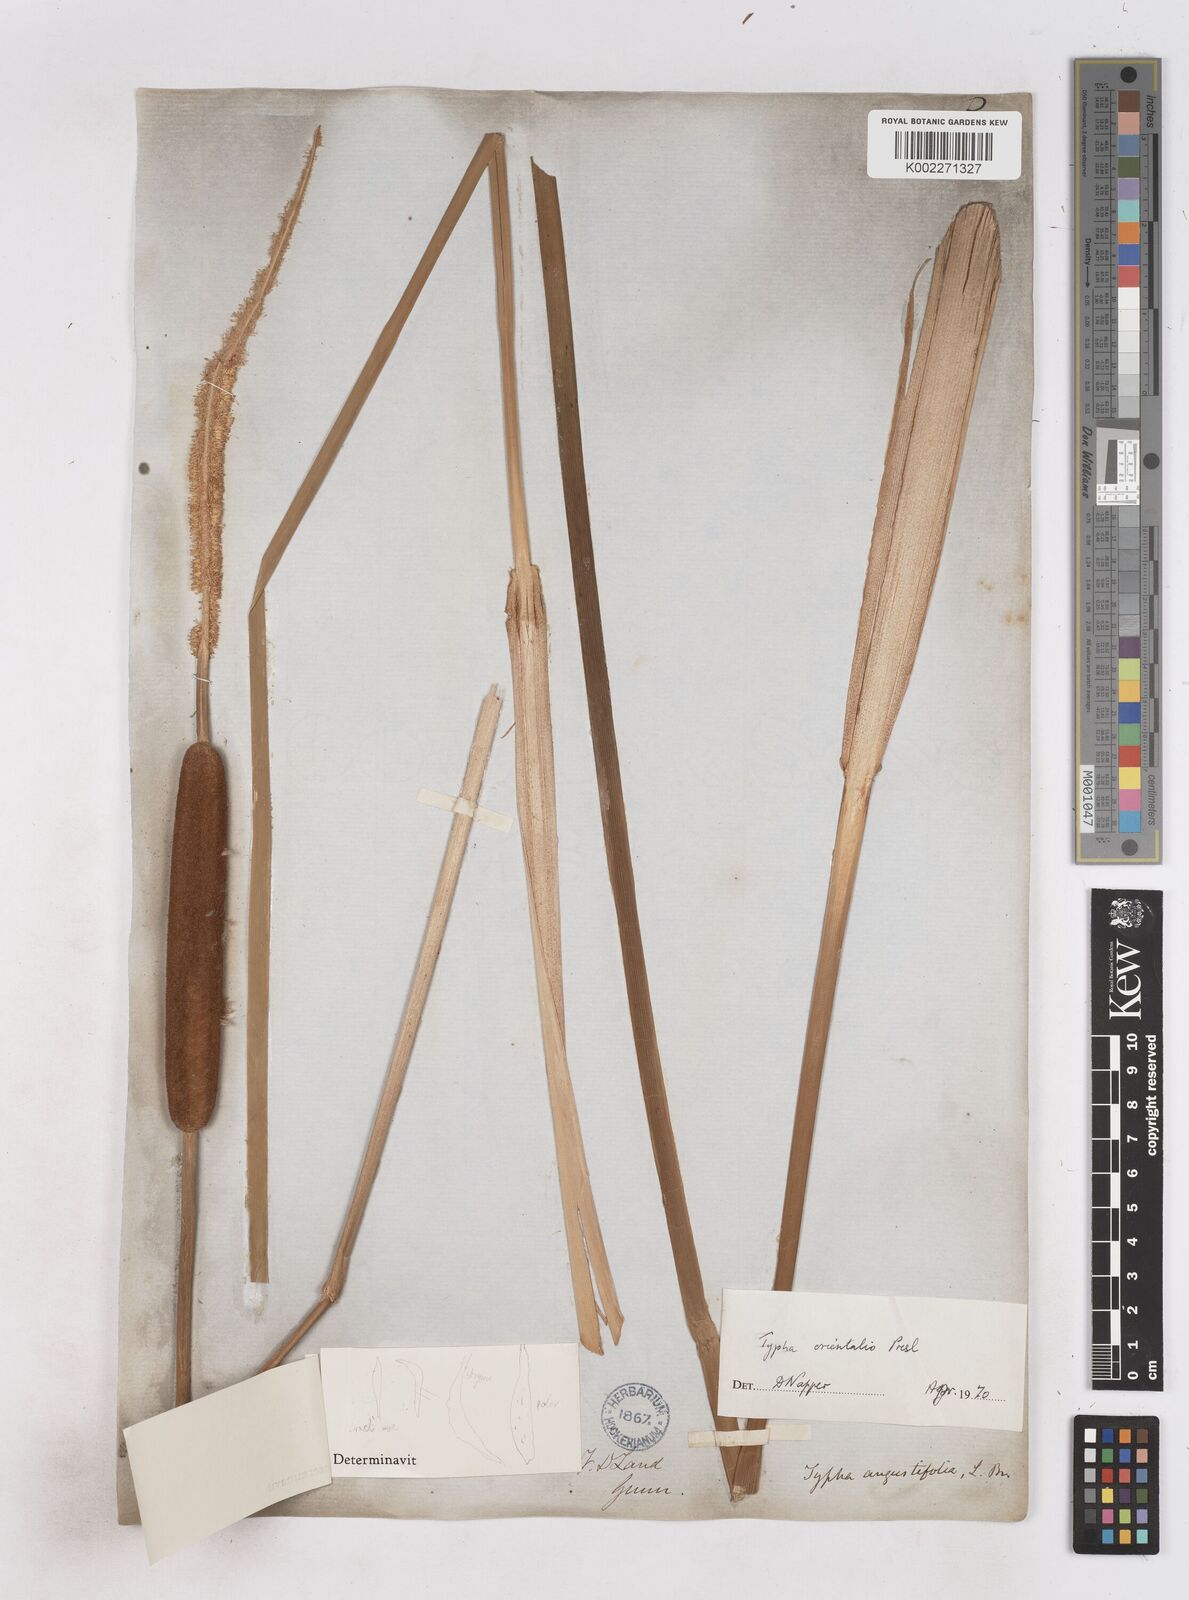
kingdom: Plantae
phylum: Tracheophyta
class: Liliopsida
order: Poales
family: Typhaceae
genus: Typha
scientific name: Typha orientalis
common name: Bullrush
